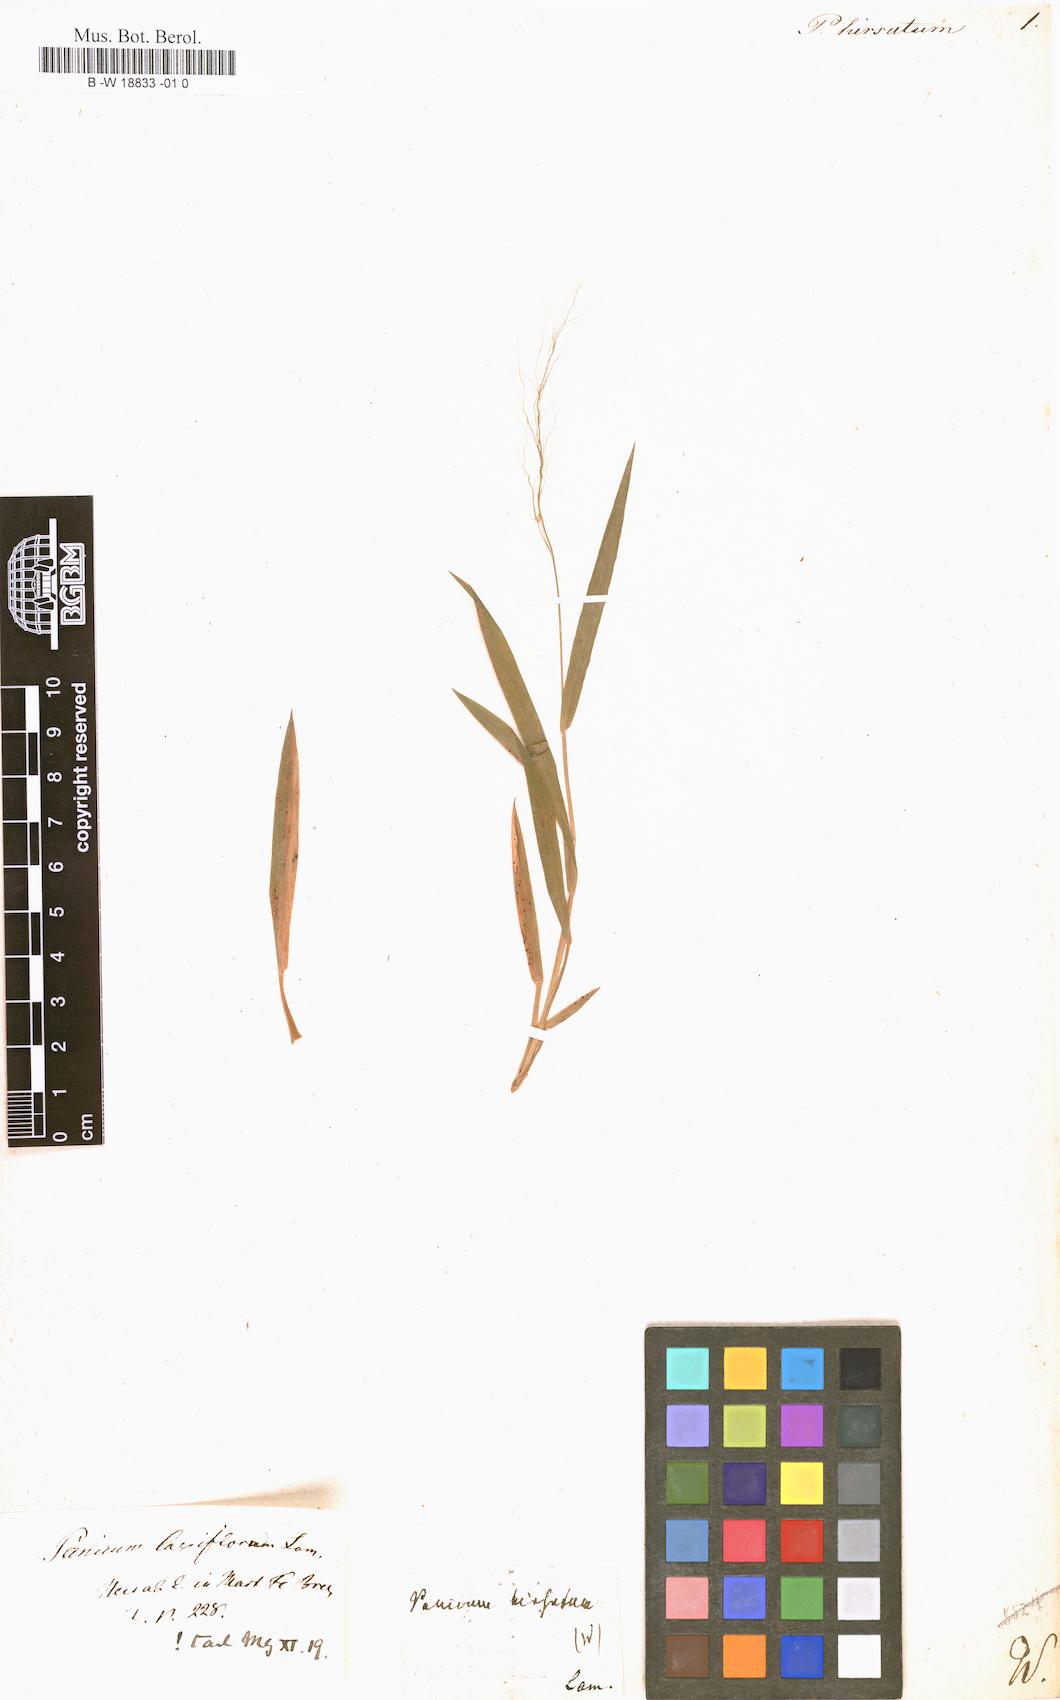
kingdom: Plantae
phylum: Tracheophyta
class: Liliopsida
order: Poales
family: Poaceae
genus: Panicum
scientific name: Panicum hirsutum
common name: Giant witchgrass
